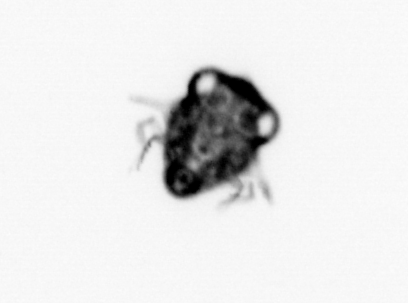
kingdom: Animalia
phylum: Arthropoda
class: Malacostraca
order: Decapoda
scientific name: Decapoda
